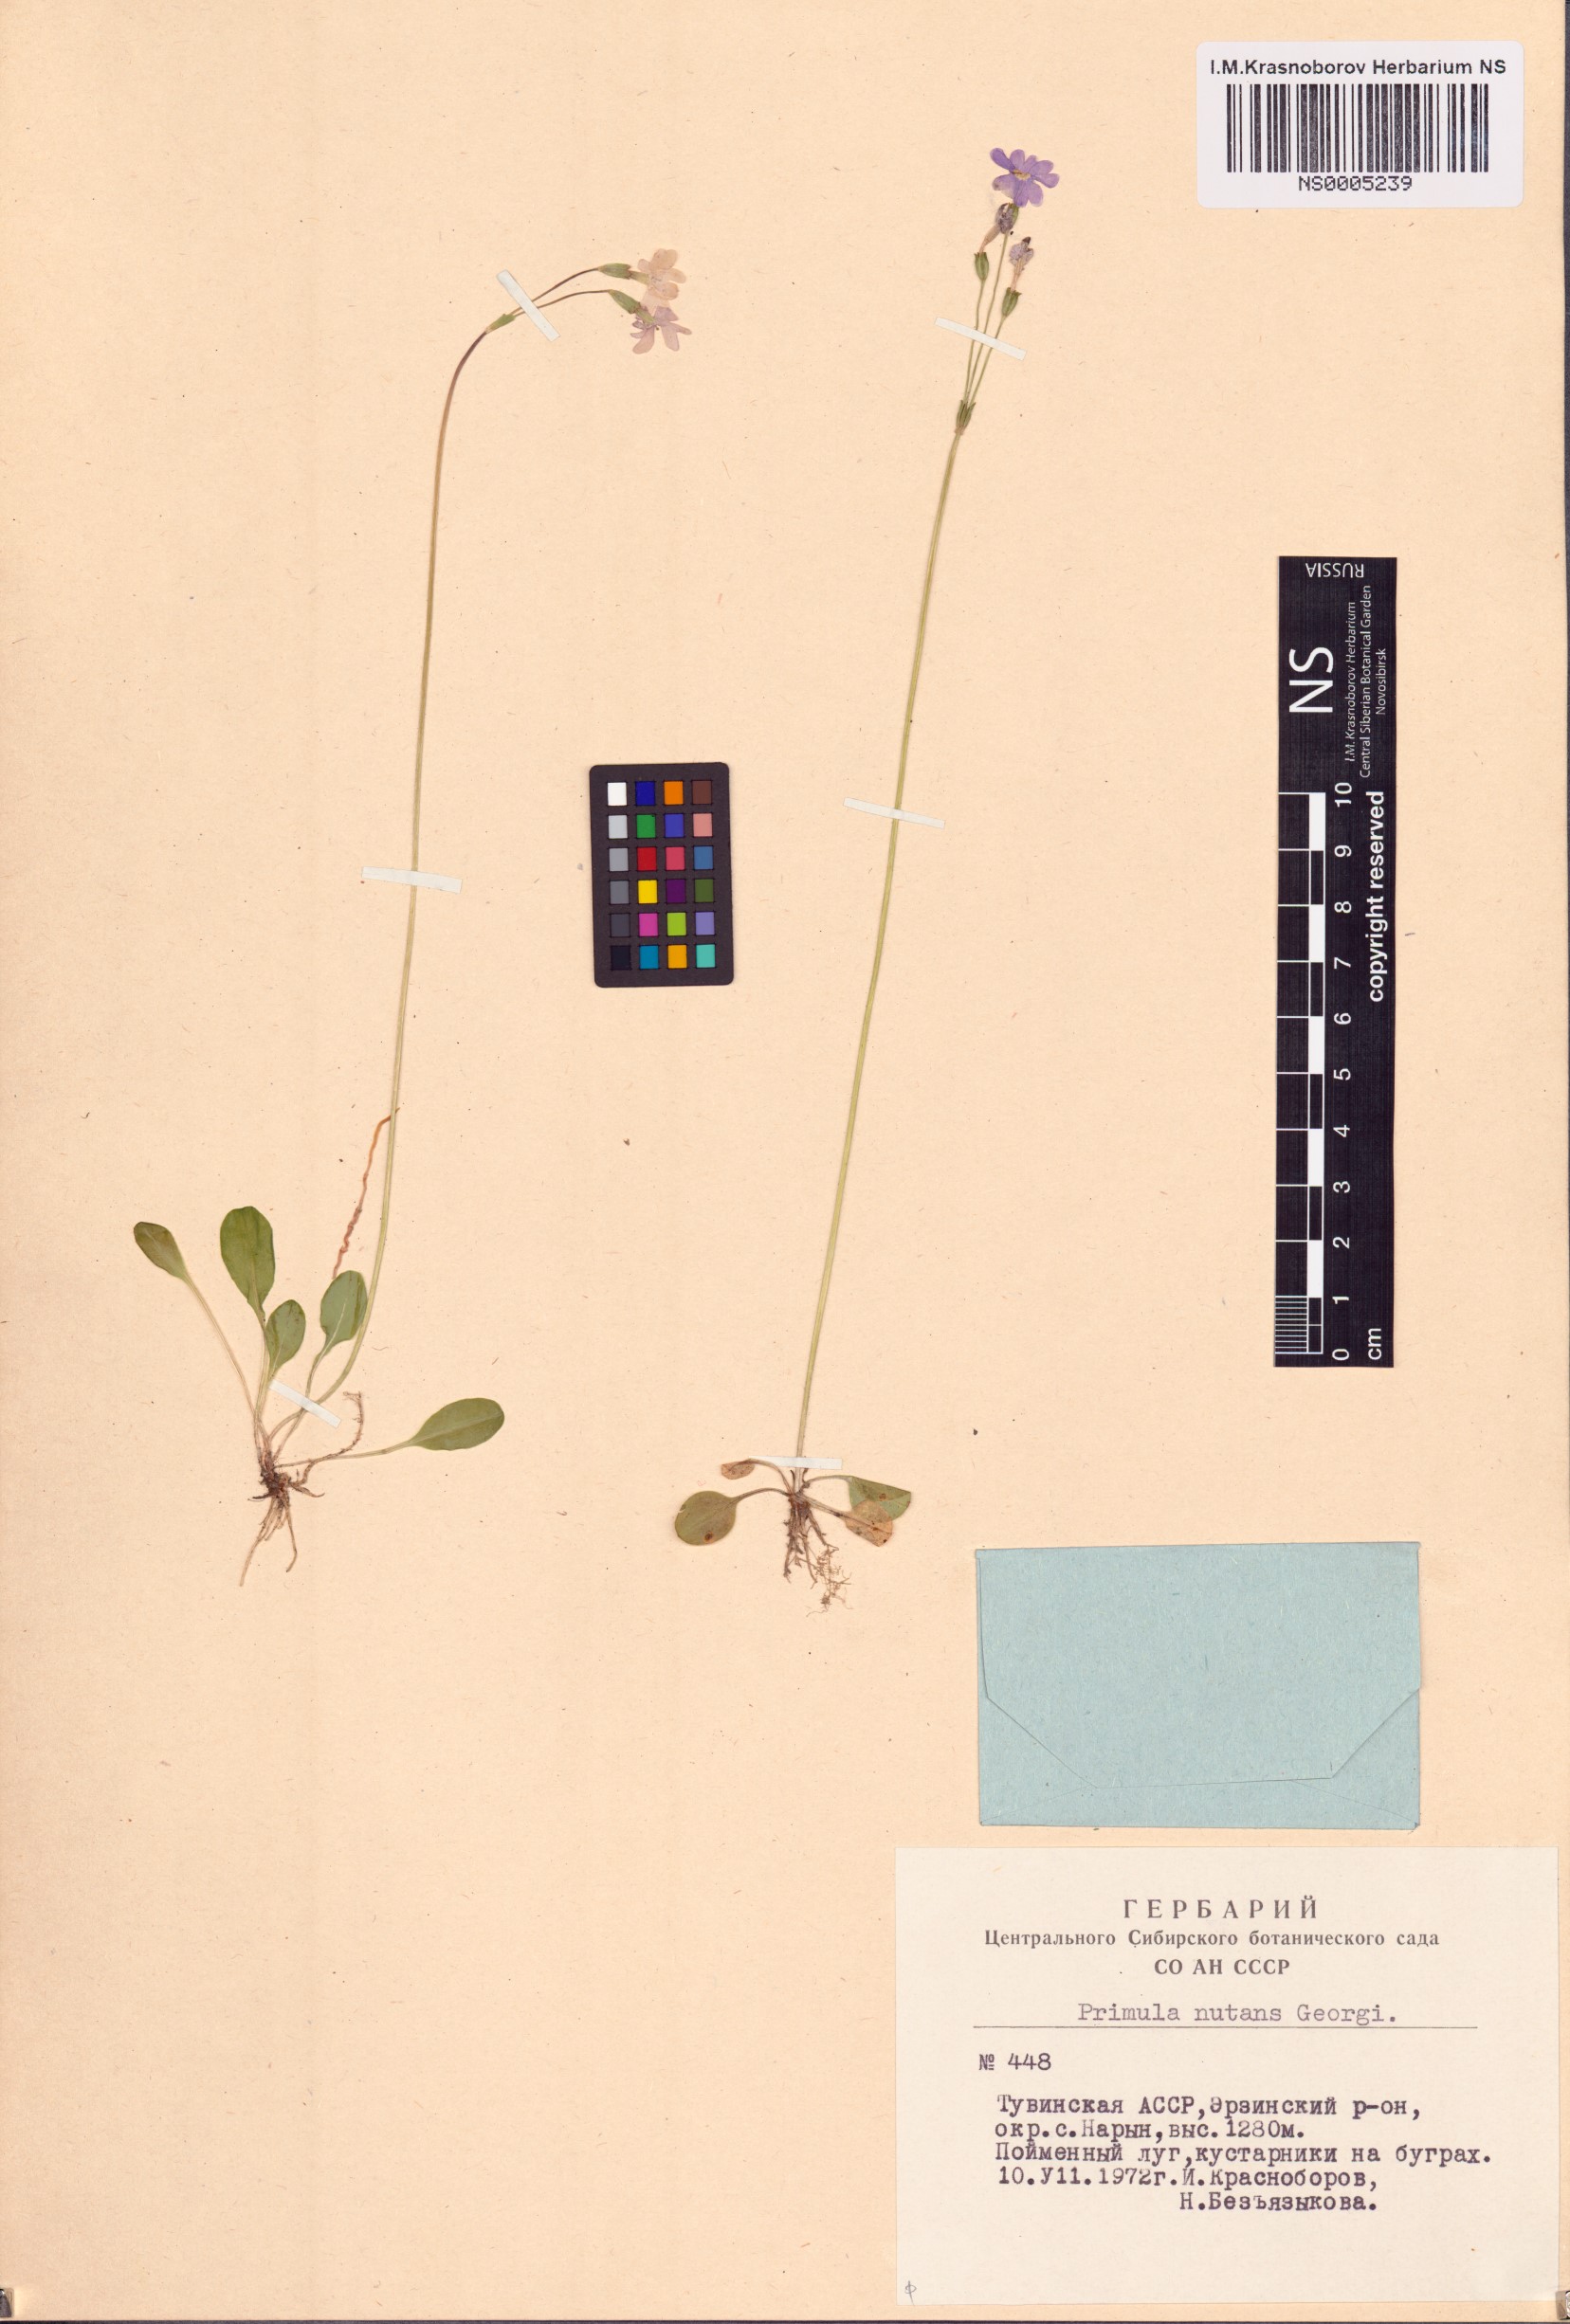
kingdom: Plantae
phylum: Tracheophyta
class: Magnoliopsida
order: Ericales
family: Primulaceae
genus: Primula
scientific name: Primula nutans
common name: Siberian primrose
